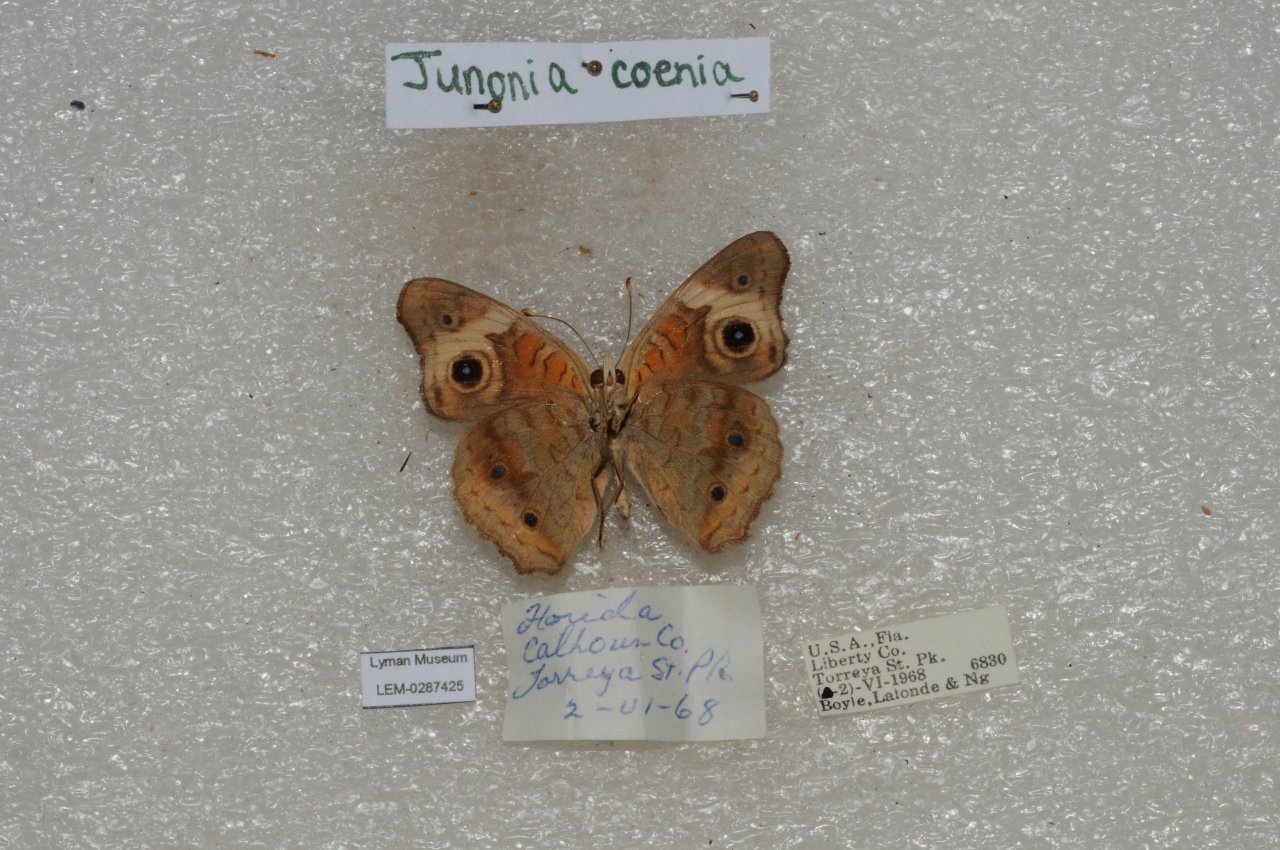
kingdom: Animalia
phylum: Arthropoda
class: Insecta
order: Lepidoptera
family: Nymphalidae
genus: Junonia
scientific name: Junonia coenia
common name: Common Buckeye
